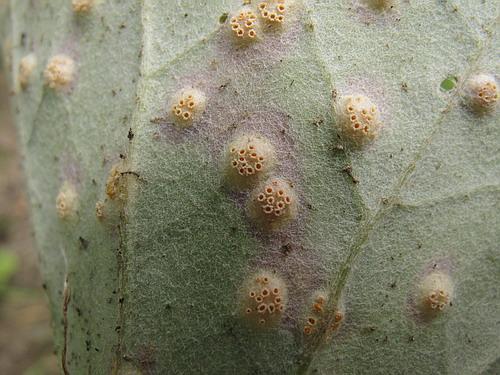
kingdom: Fungi
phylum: Basidiomycota
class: Pucciniomycetes
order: Pucciniales
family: Pucciniaceae
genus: Puccinia
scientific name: Puccinia poarum
